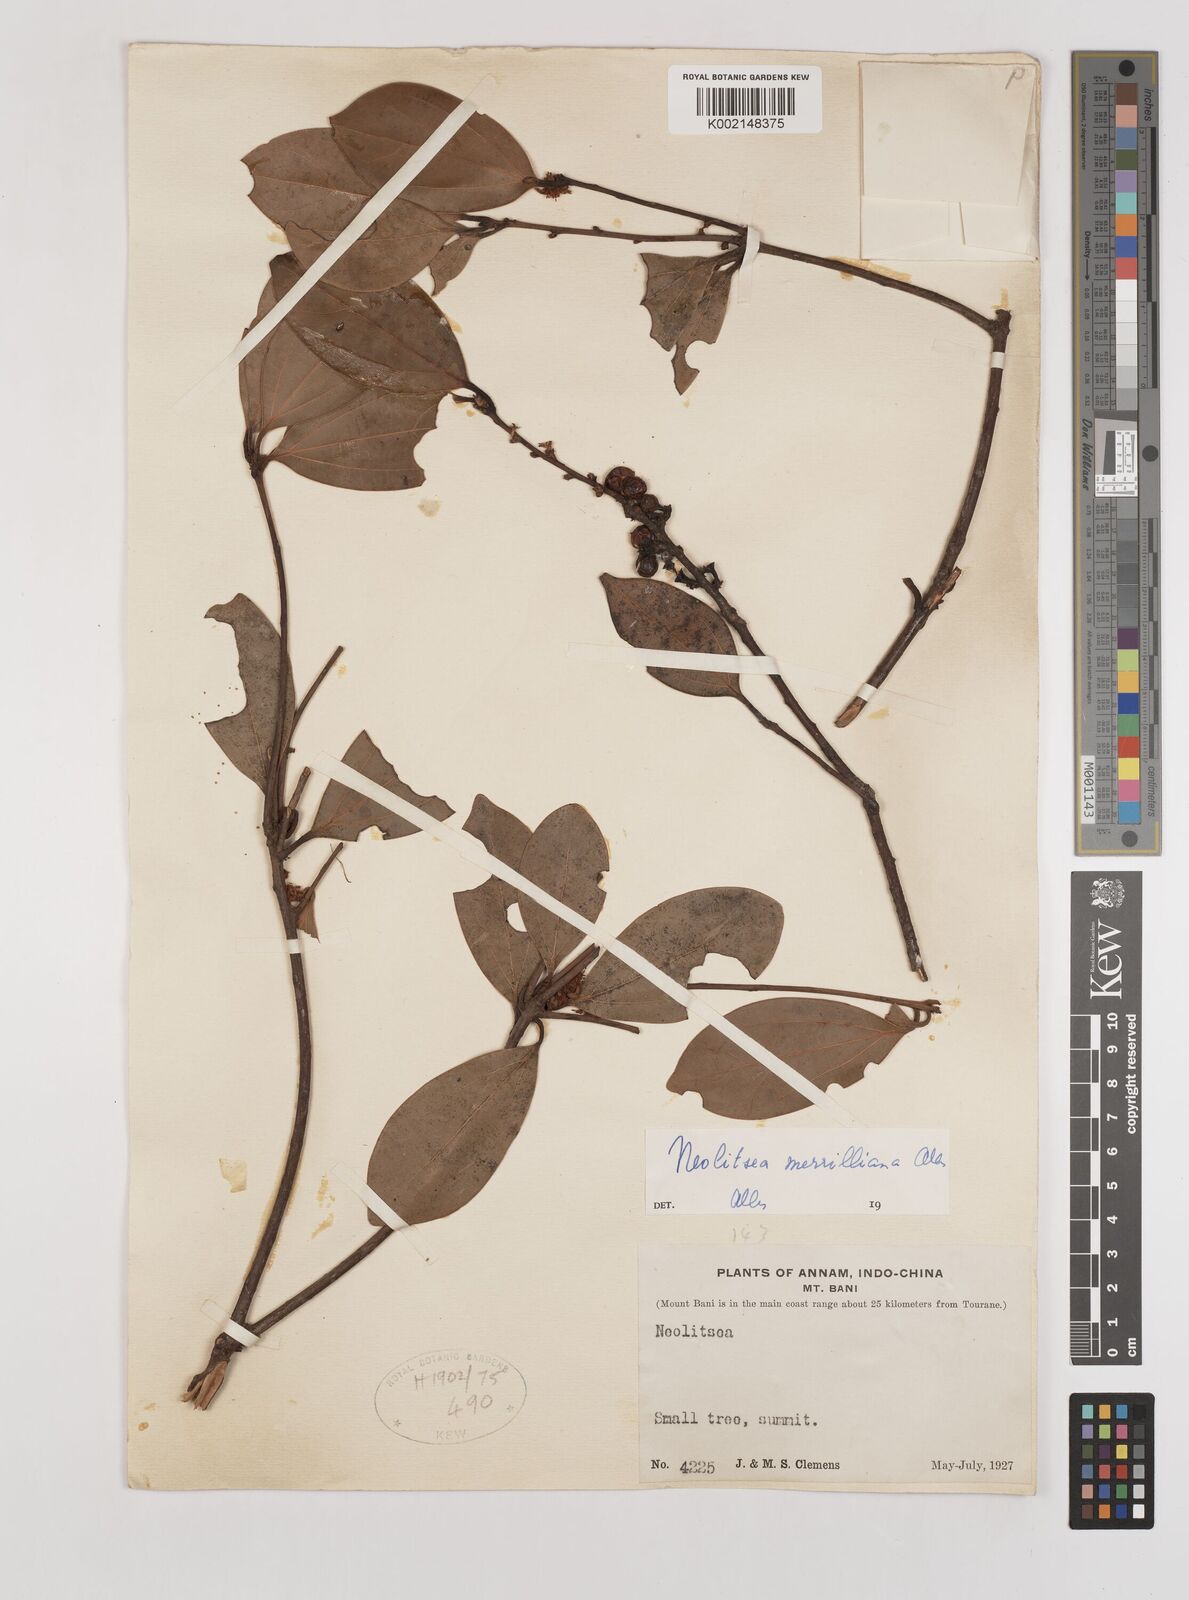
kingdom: Plantae
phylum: Tracheophyta
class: Magnoliopsida
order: Laurales
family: Lauraceae
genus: Neolitsea
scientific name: Neolitsea buisanensis
